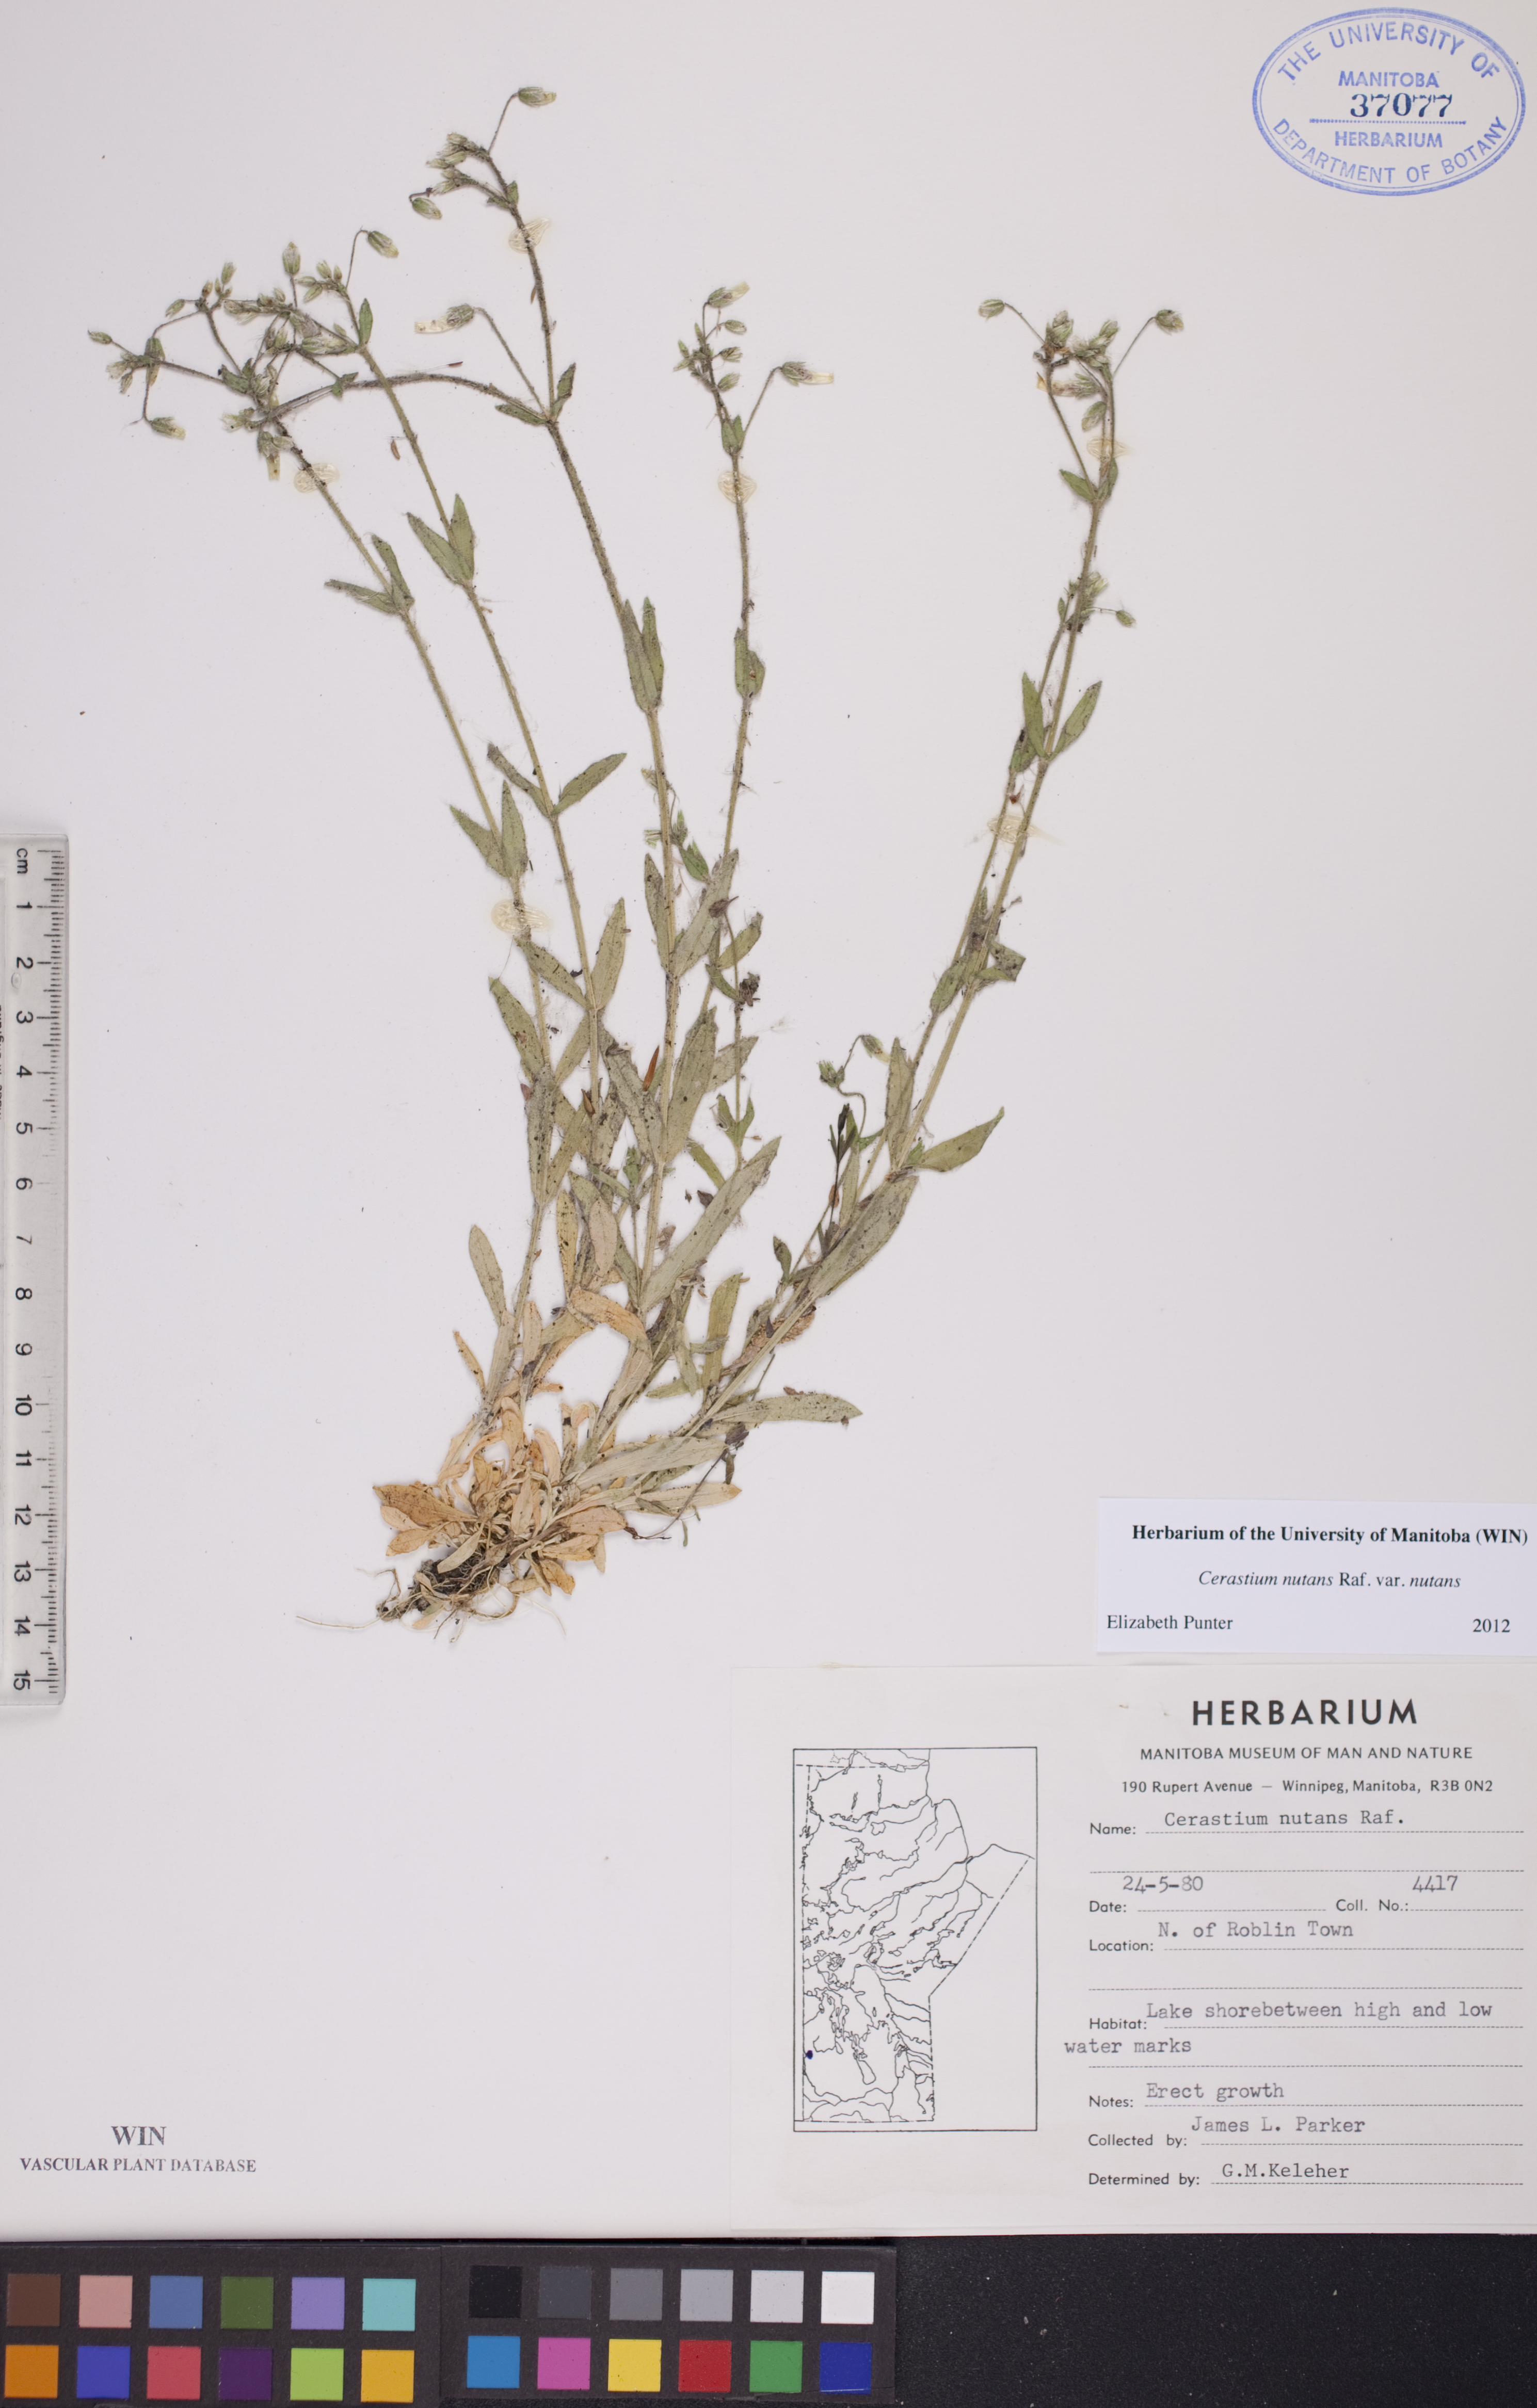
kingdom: Plantae
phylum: Tracheophyta
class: Magnoliopsida
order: Caryophyllales
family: Caryophyllaceae
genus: Cerastium
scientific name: Cerastium nutans
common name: Long-stalked chickweed
